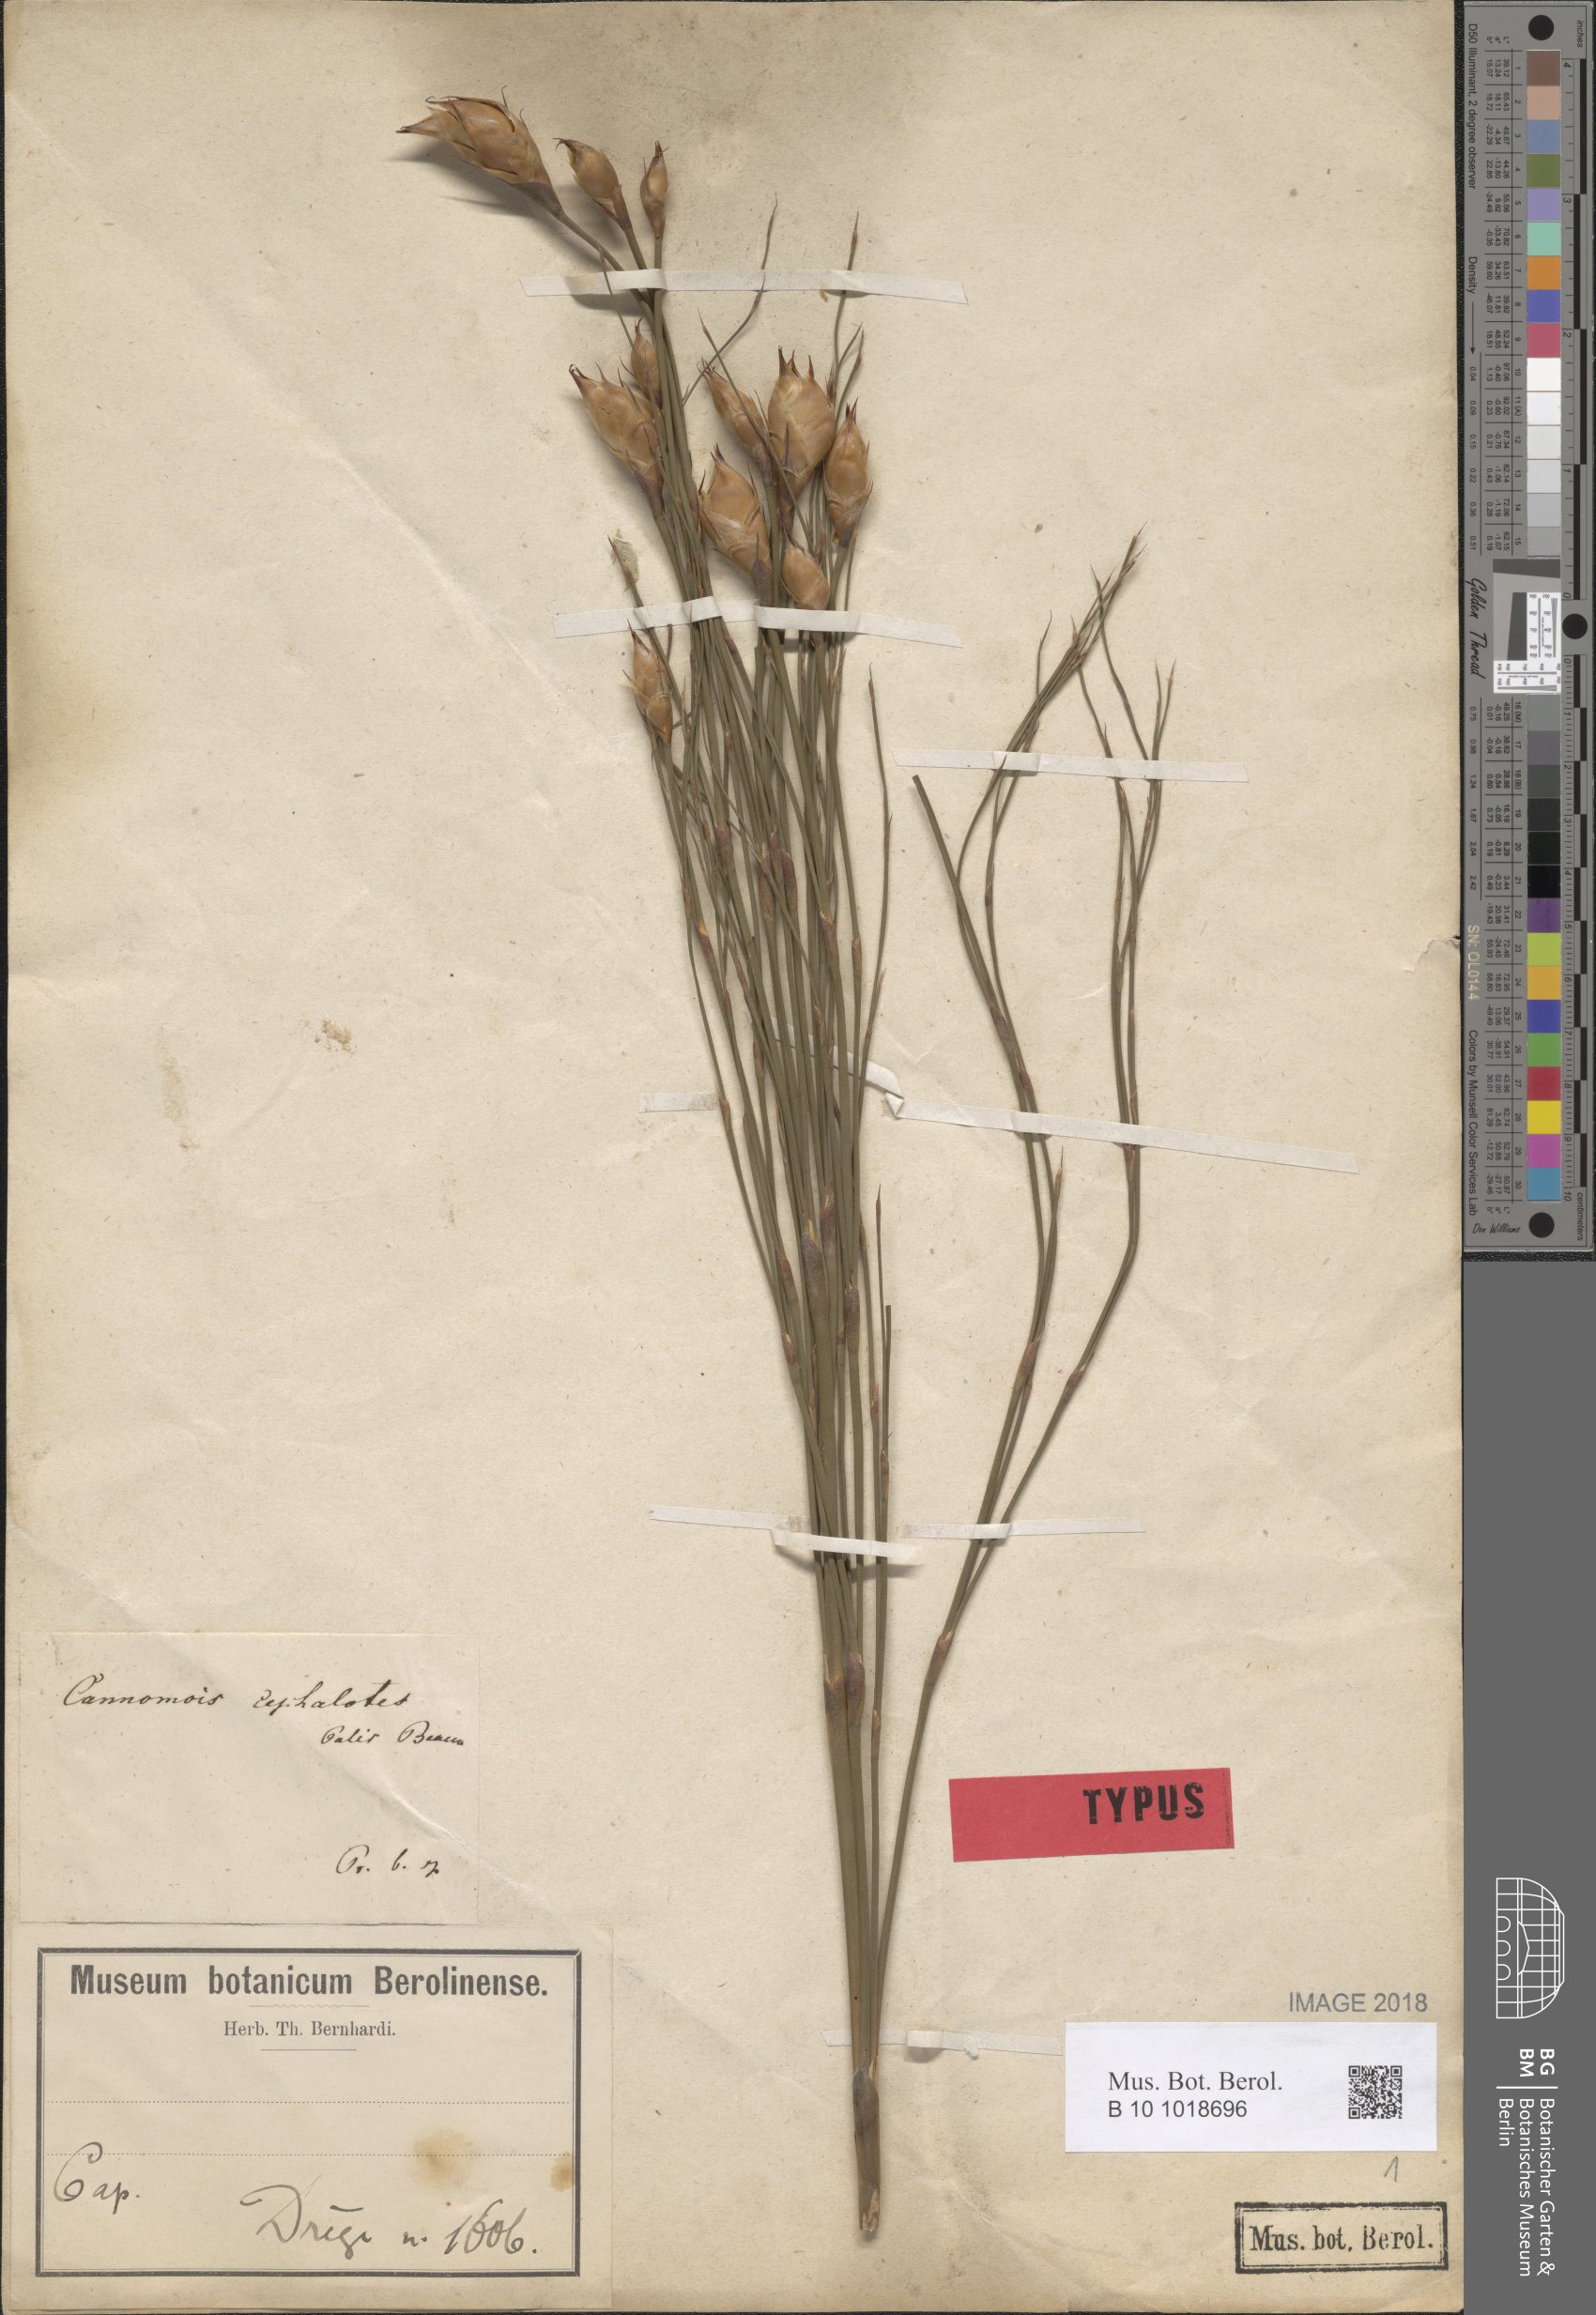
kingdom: Plantae
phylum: Tracheophyta
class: Liliopsida
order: Poales
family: Restionaceae
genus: Cannomois
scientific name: Cannomois robusta
